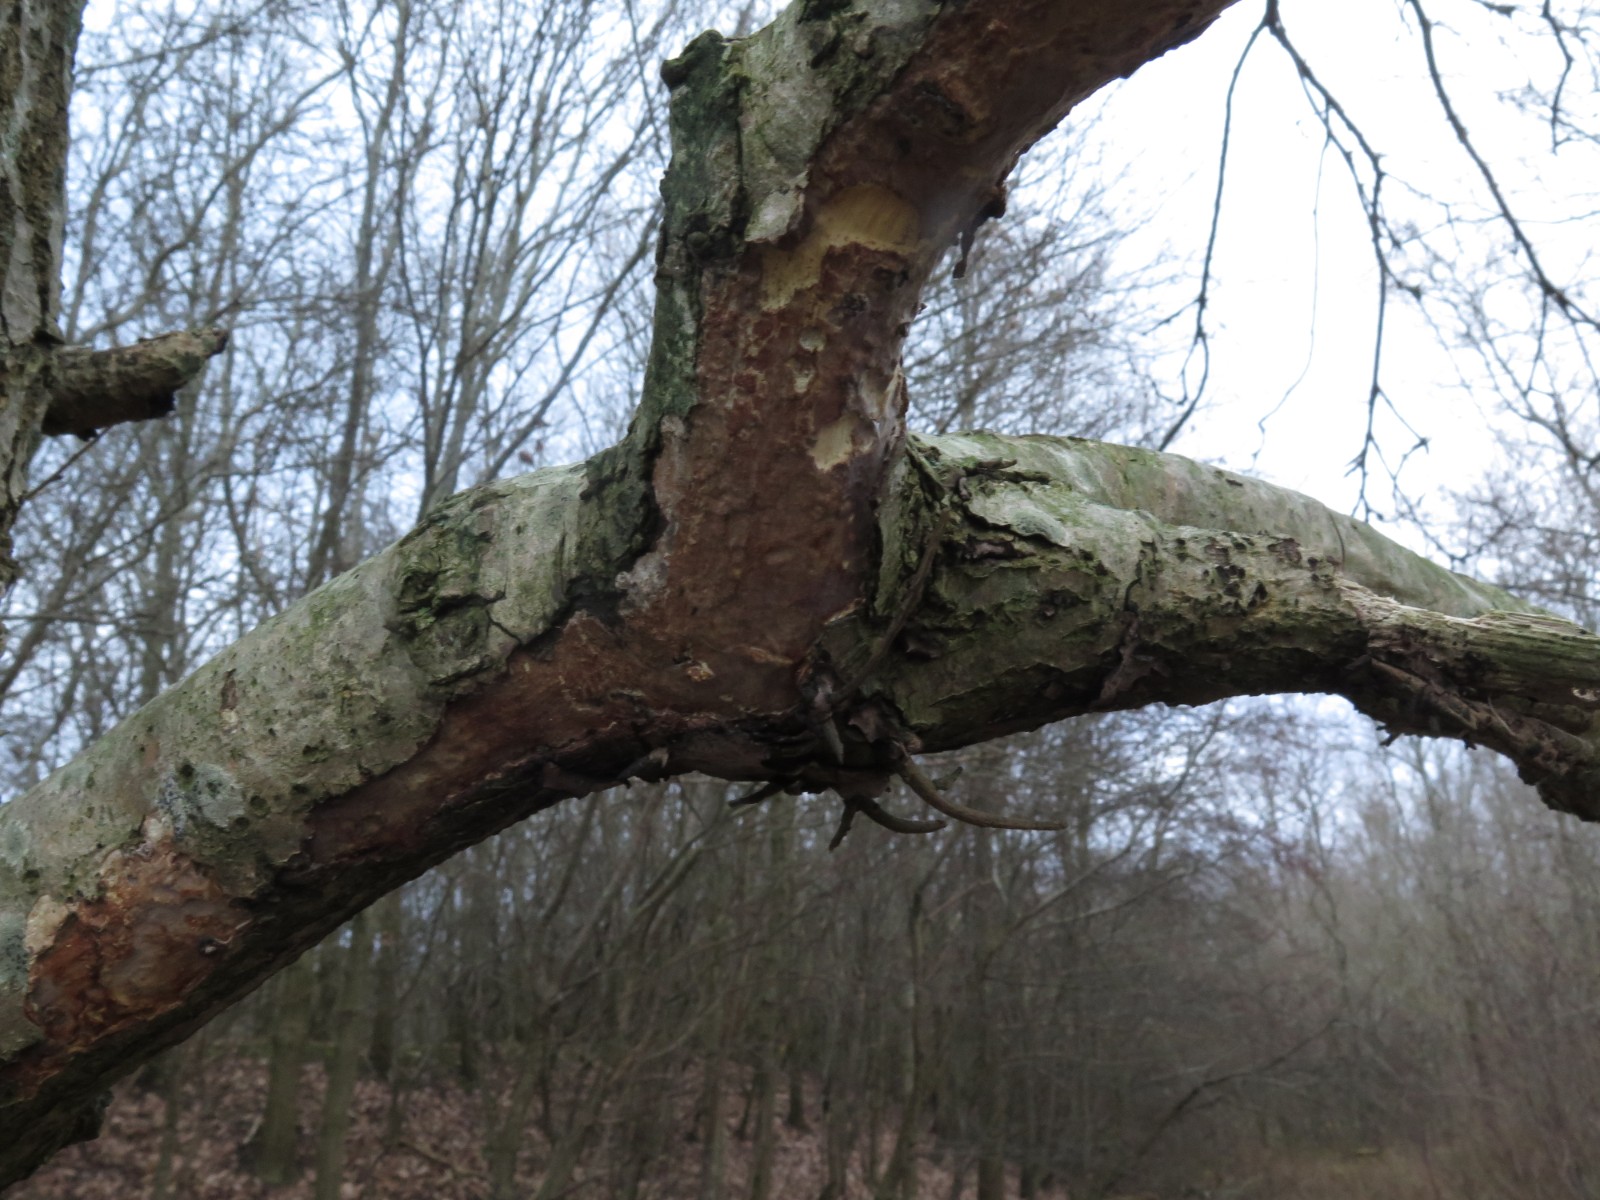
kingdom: Fungi
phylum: Basidiomycota
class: Agaricomycetes
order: Corticiales
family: Vuilleminiaceae
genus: Vuilleminia
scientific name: Vuilleminia comedens
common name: almindelig barksprænger
